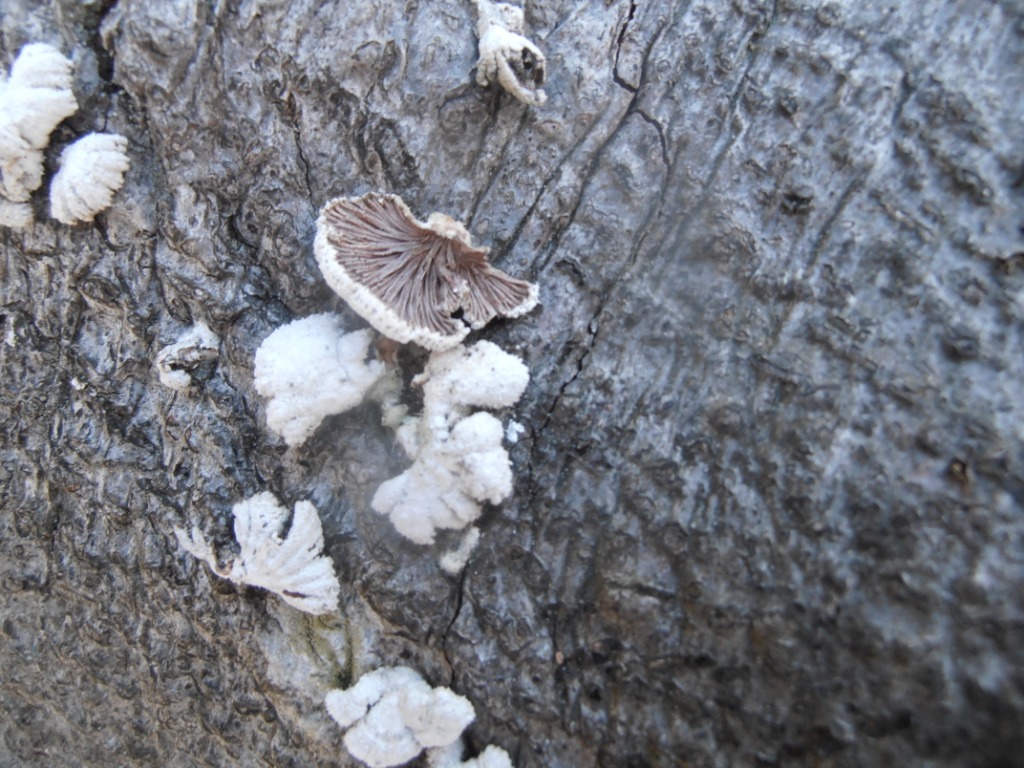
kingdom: Fungi
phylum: Basidiomycota
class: Agaricomycetes
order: Agaricales
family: Schizophyllaceae
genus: Schizophyllum
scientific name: Schizophyllum commune
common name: kløvblad
